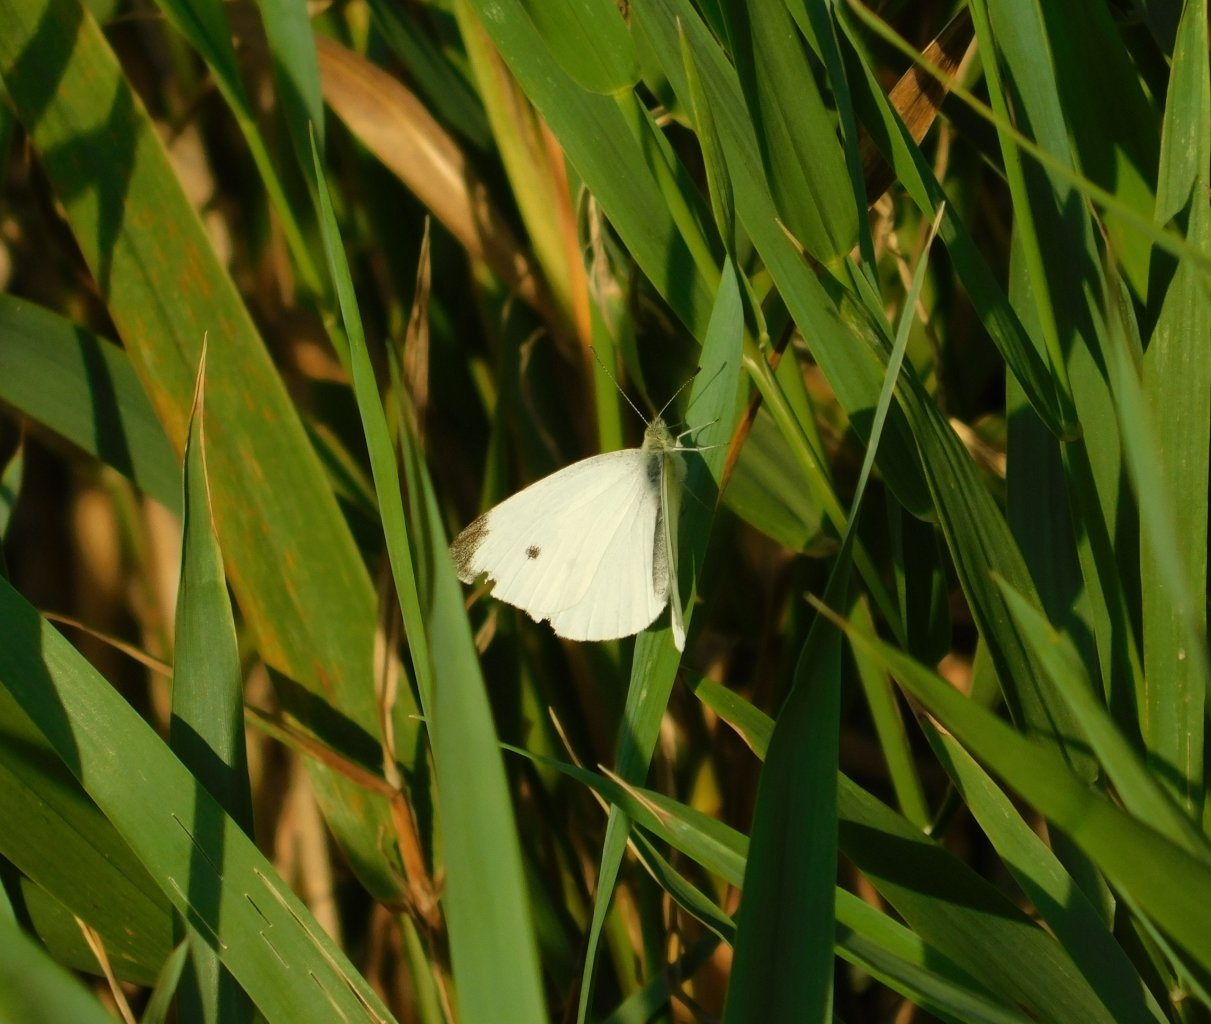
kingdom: Animalia
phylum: Arthropoda
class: Insecta
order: Lepidoptera
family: Pieridae
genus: Pieris
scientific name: Pieris rapae
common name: Cabbage White
